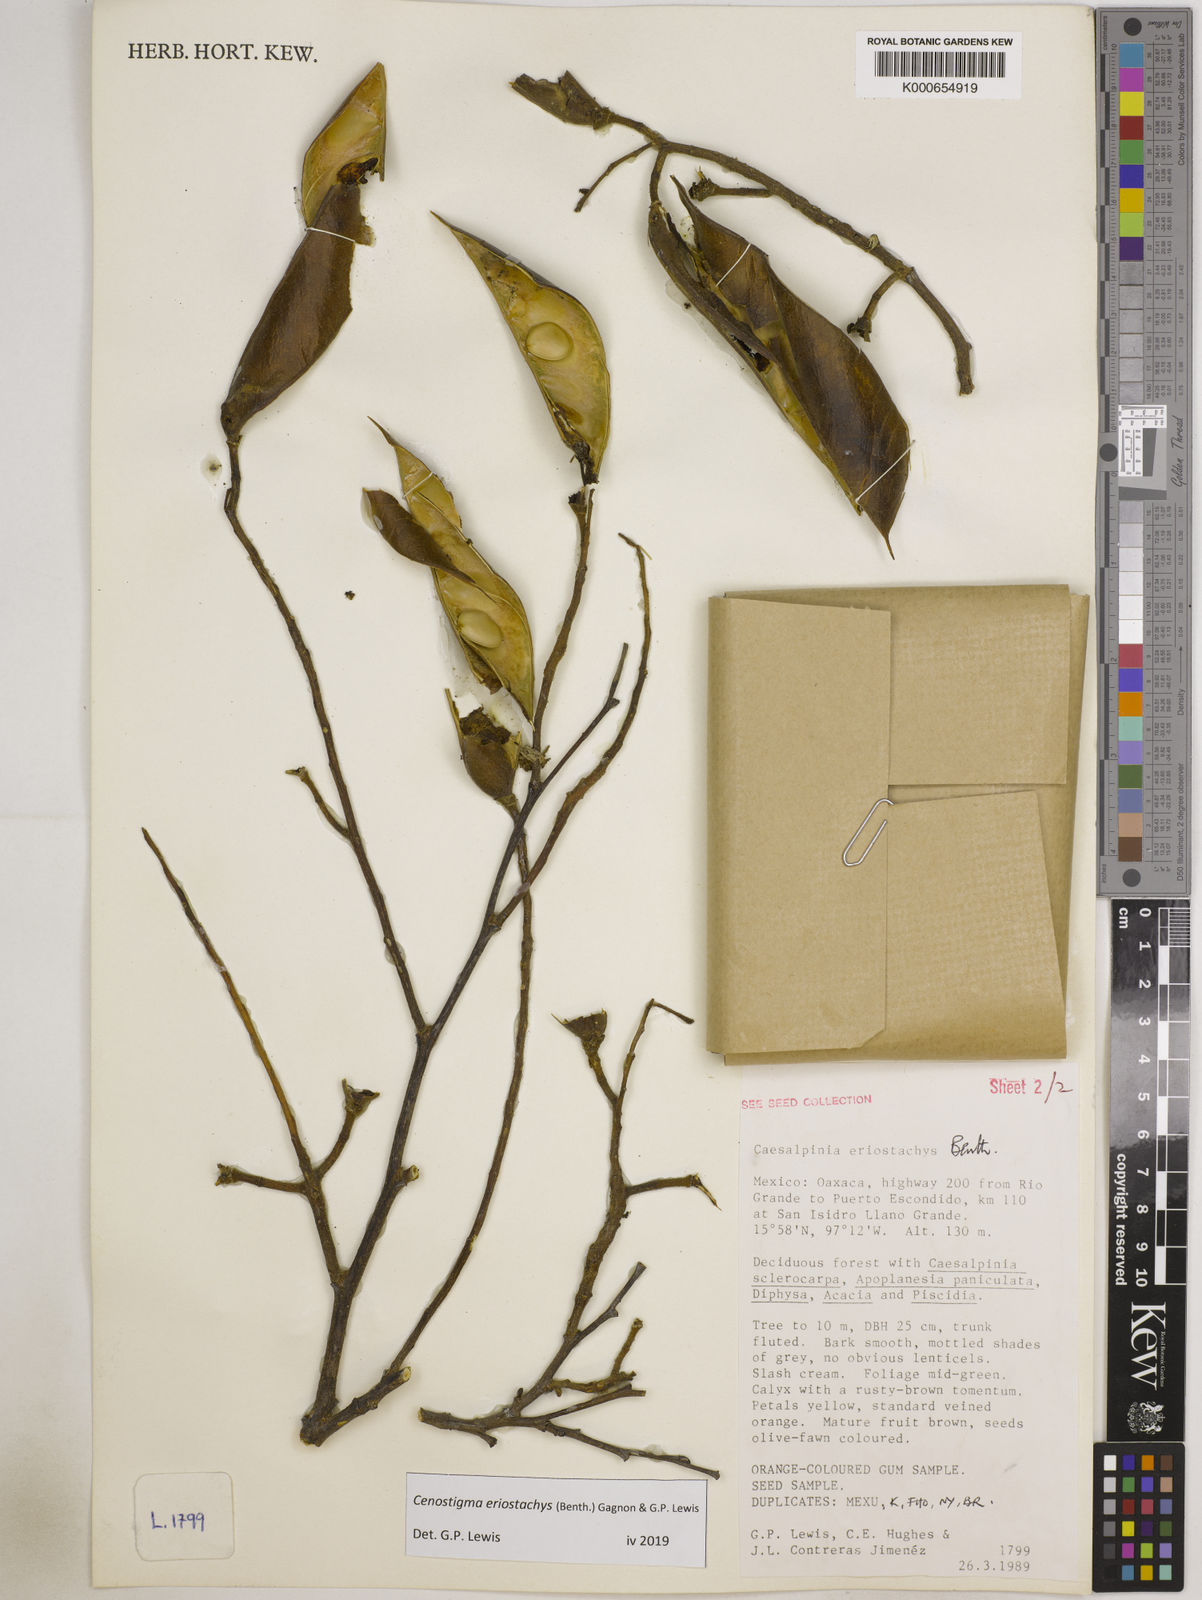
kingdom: Plantae
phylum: Tracheophyta
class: Magnoliopsida
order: Fabales
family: Fabaceae
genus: Cenostigma
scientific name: Cenostigma eriostachys
